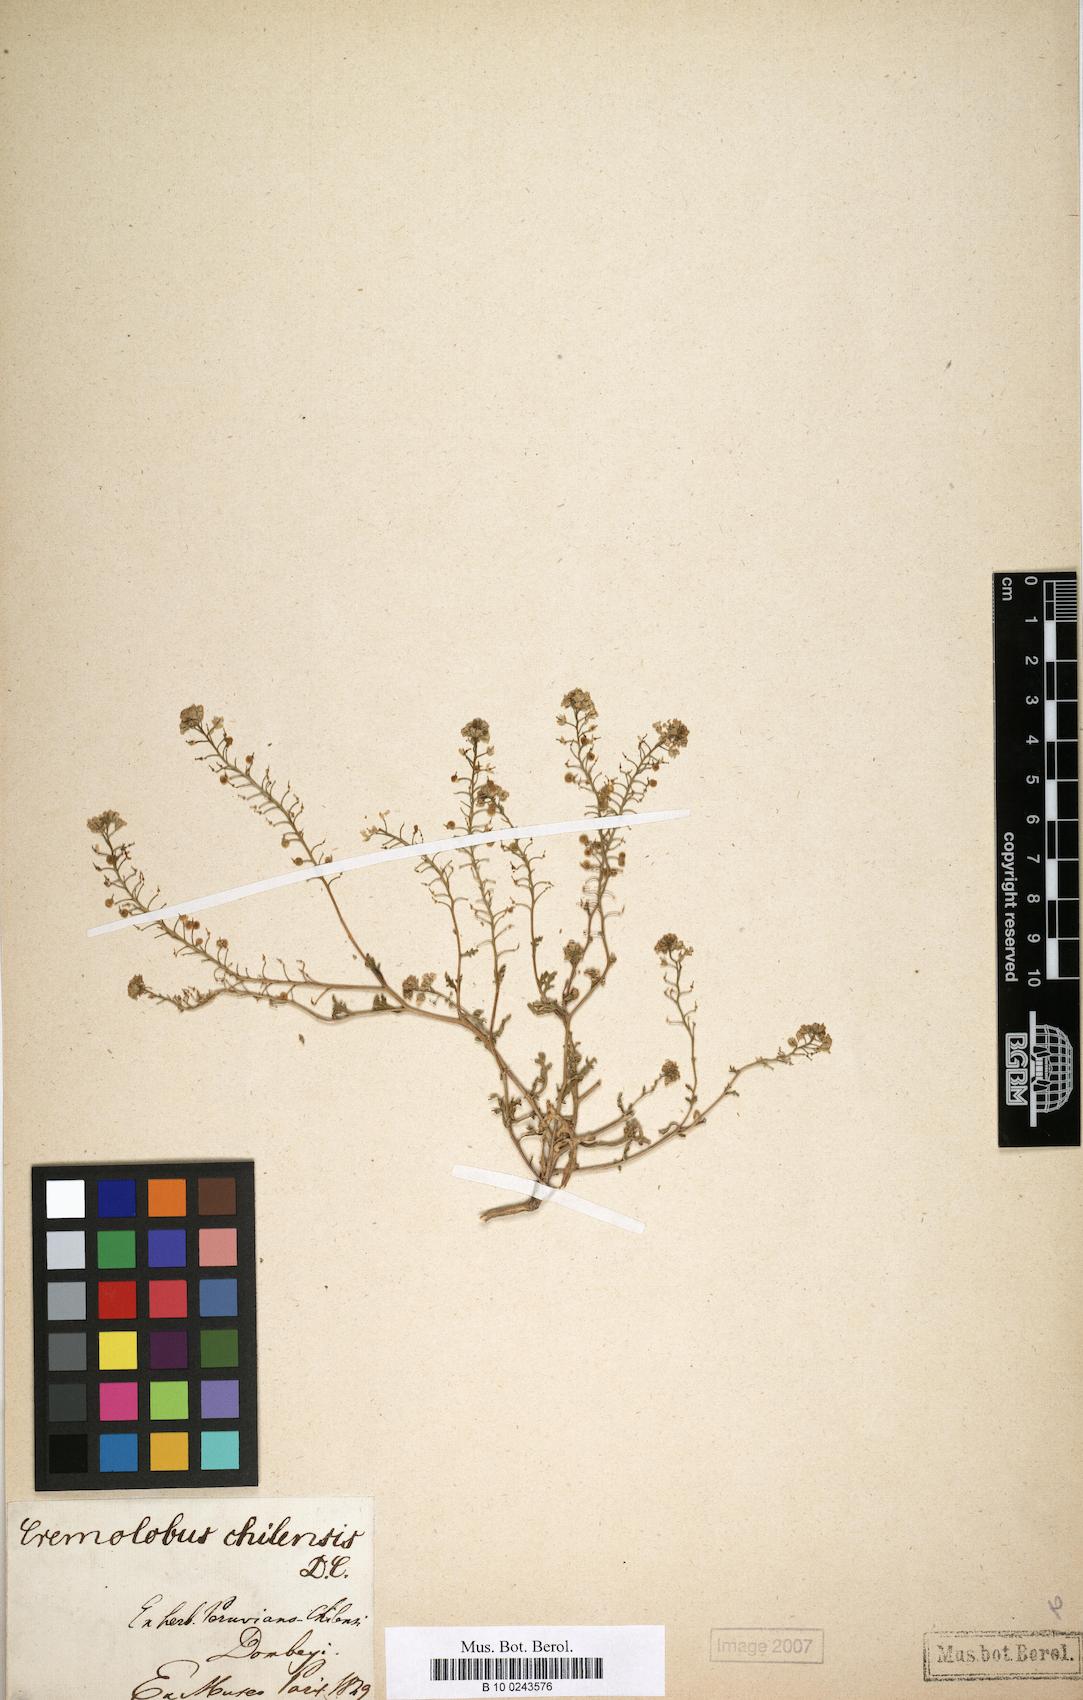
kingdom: Plantae
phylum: Tracheophyta
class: Magnoliopsida
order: Brassicales
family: Brassicaceae
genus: Cremolobus
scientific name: Cremolobus chilensis
